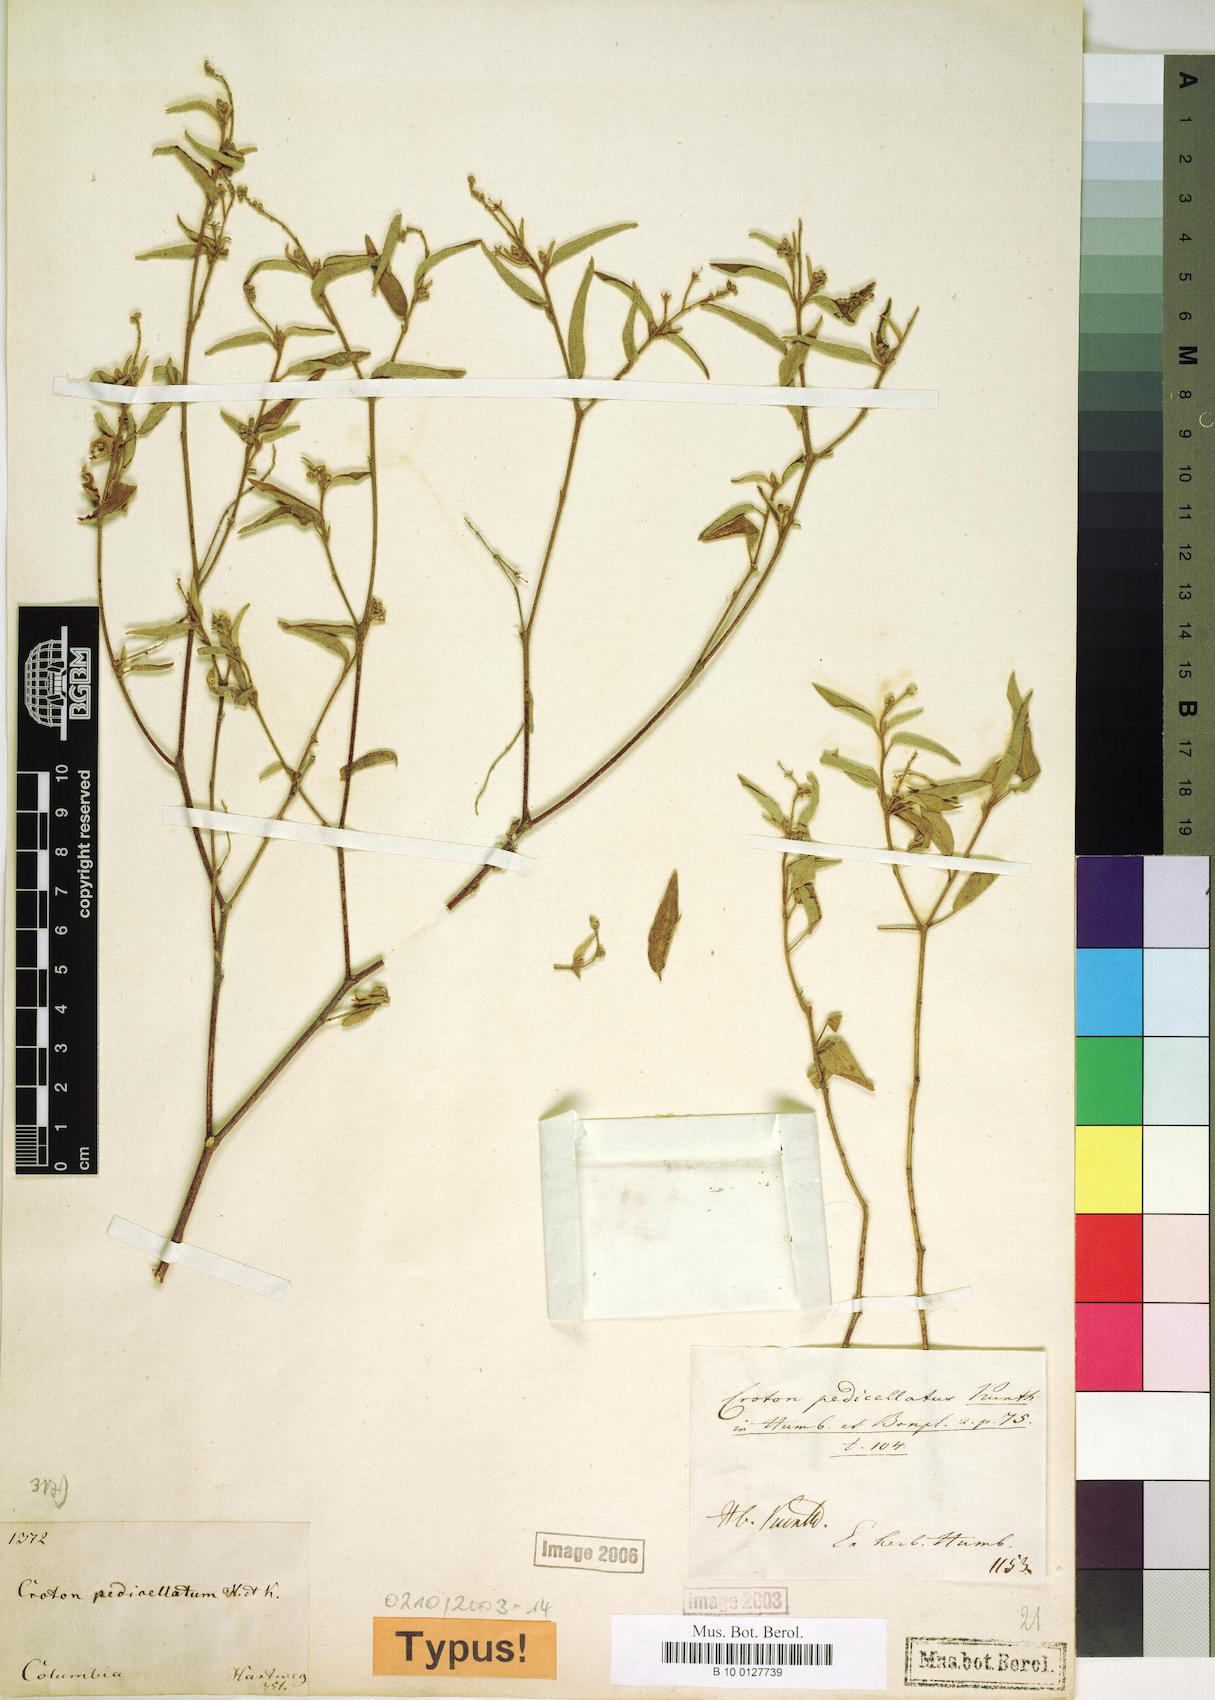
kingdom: Plantae
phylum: Tracheophyta
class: Magnoliopsida
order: Malpighiales
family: Euphorbiaceae
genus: Croton
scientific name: Croton pedicellatus
